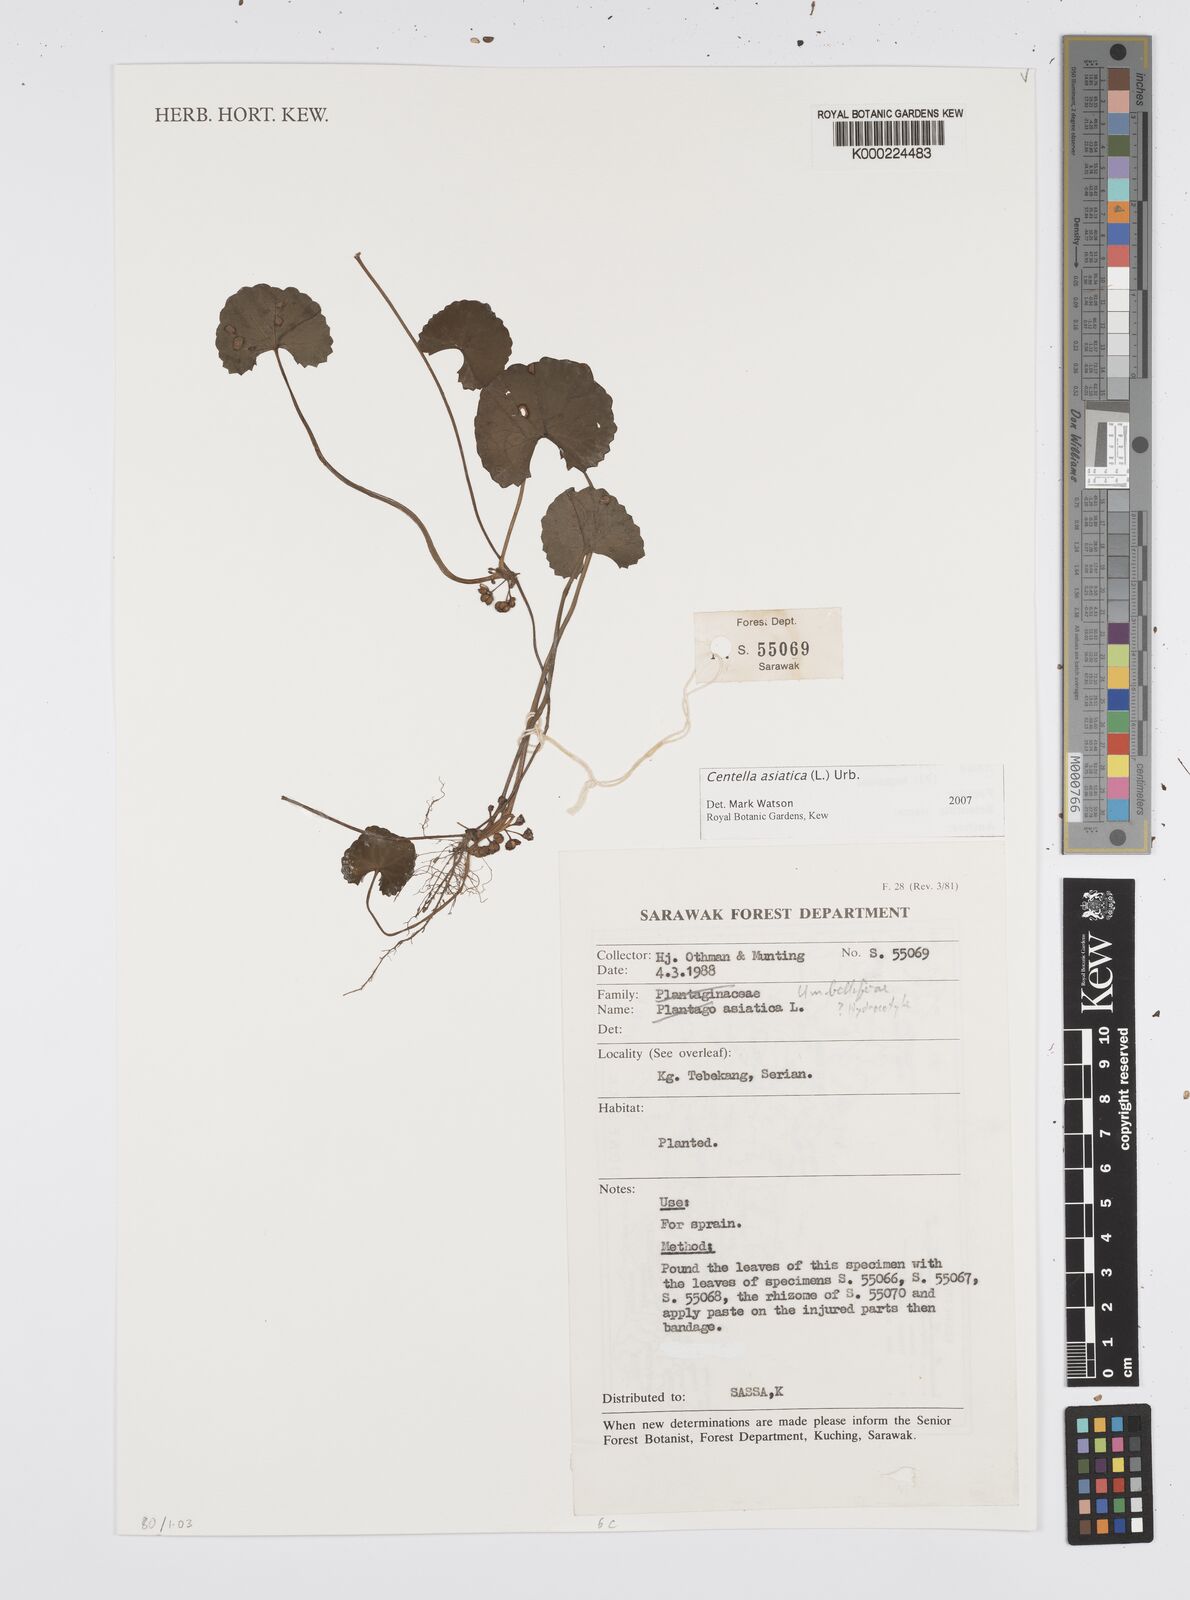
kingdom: Plantae
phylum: Tracheophyta
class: Magnoliopsida
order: Apiales
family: Apiaceae
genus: Centella
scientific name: Centella asiatica
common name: Spadeleaf
